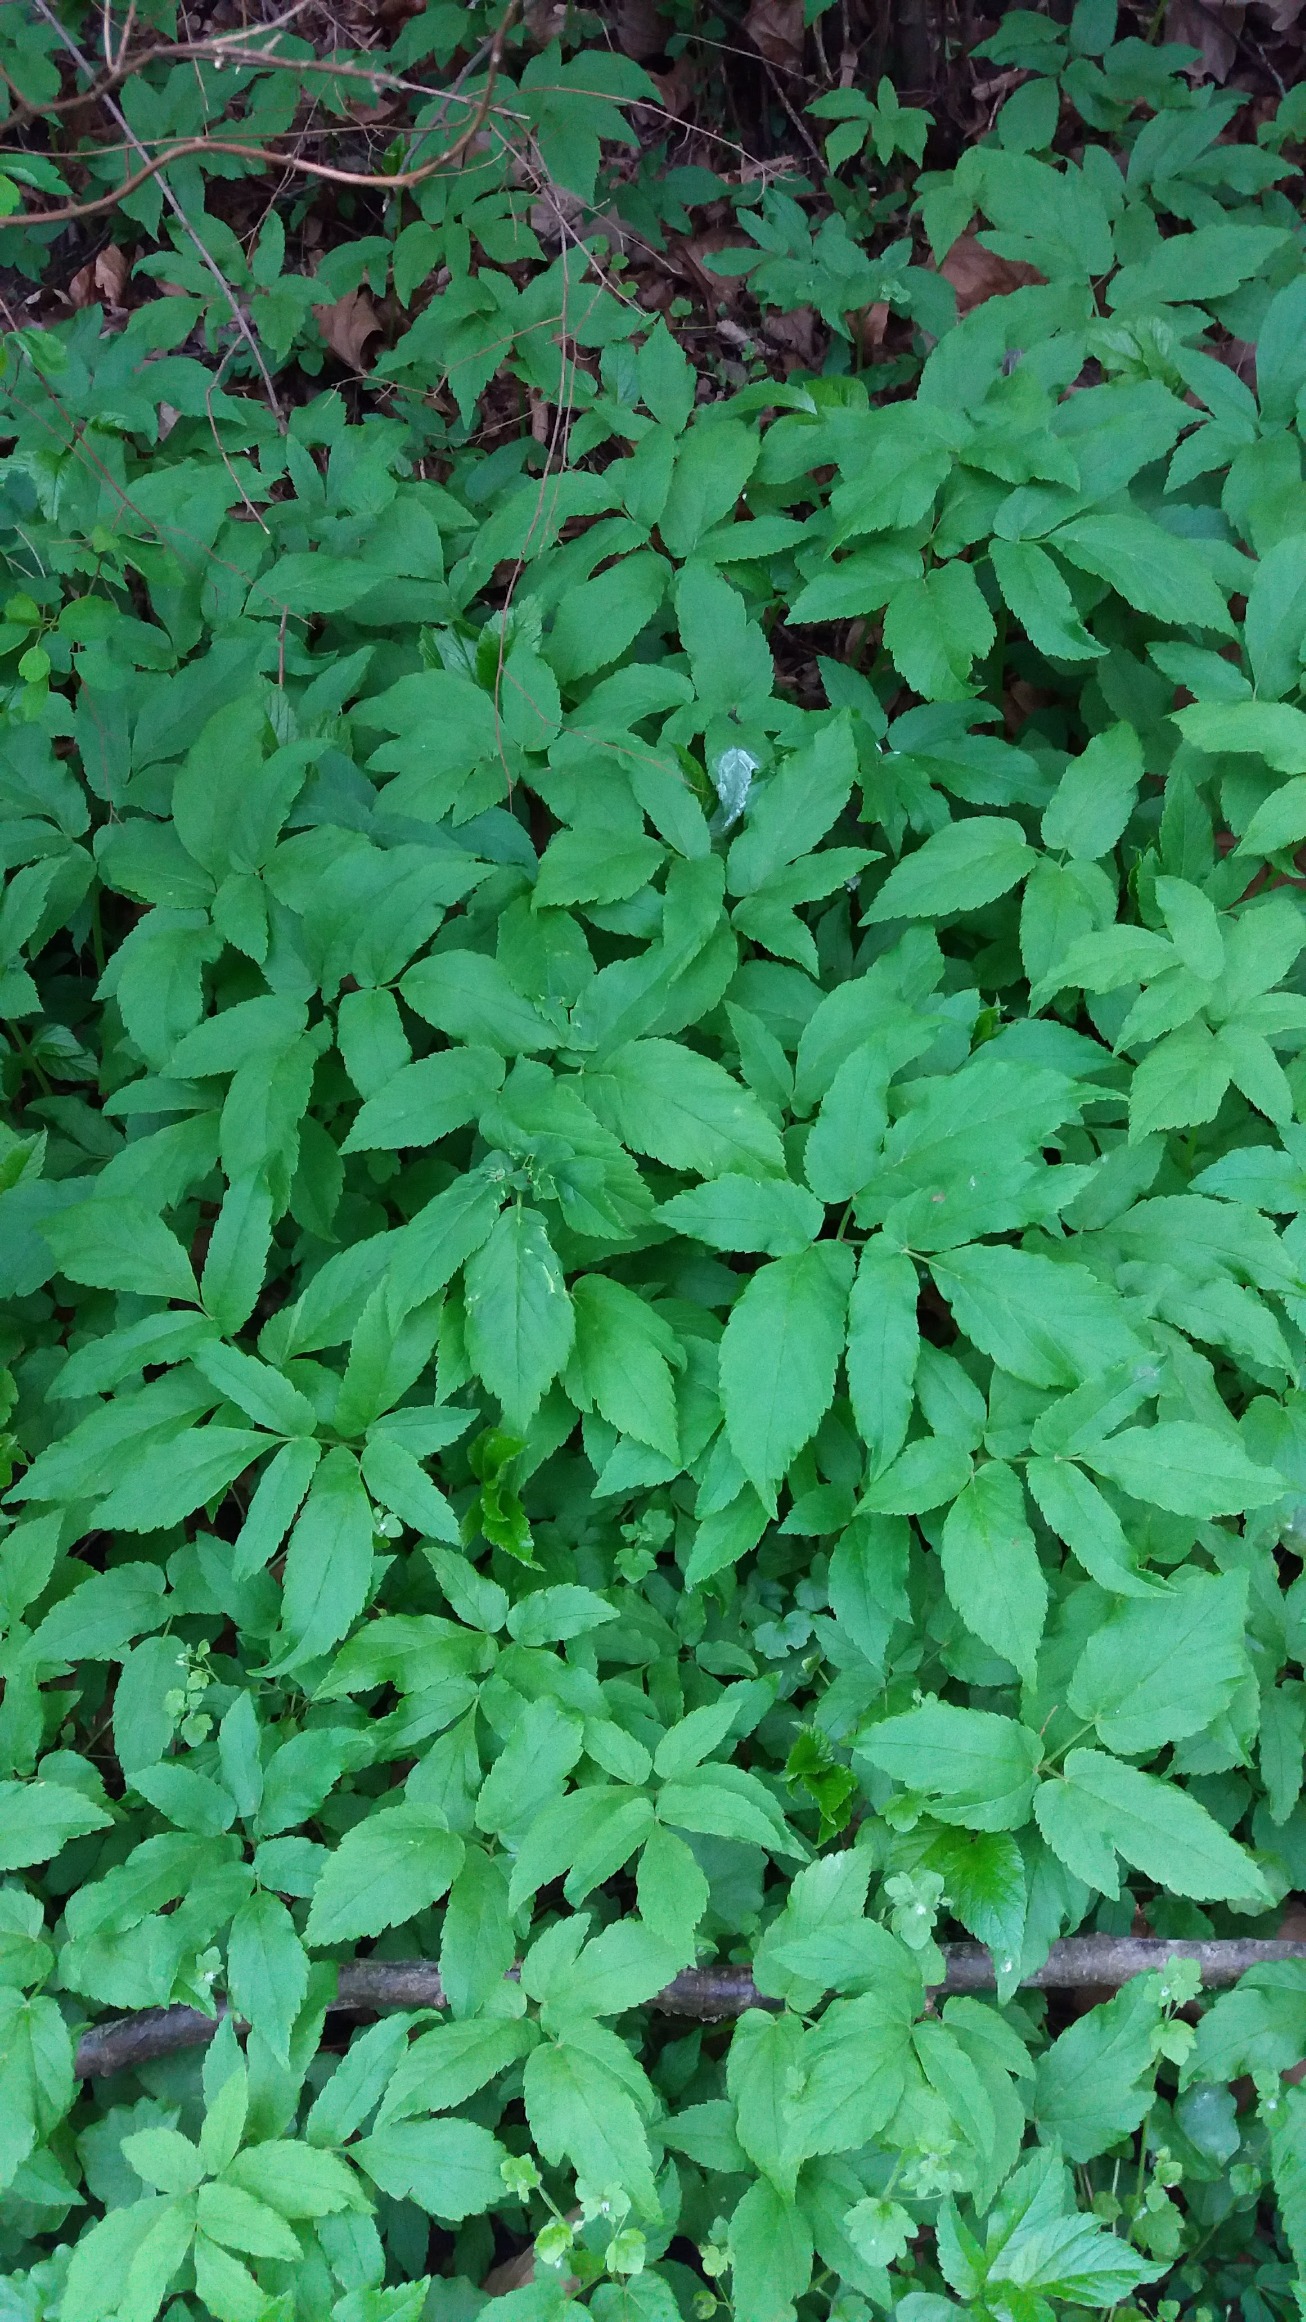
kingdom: Plantae
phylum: Tracheophyta
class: Magnoliopsida
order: Apiales
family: Apiaceae
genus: Aegopodium
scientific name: Aegopodium podagraria
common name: Skvalderkål
